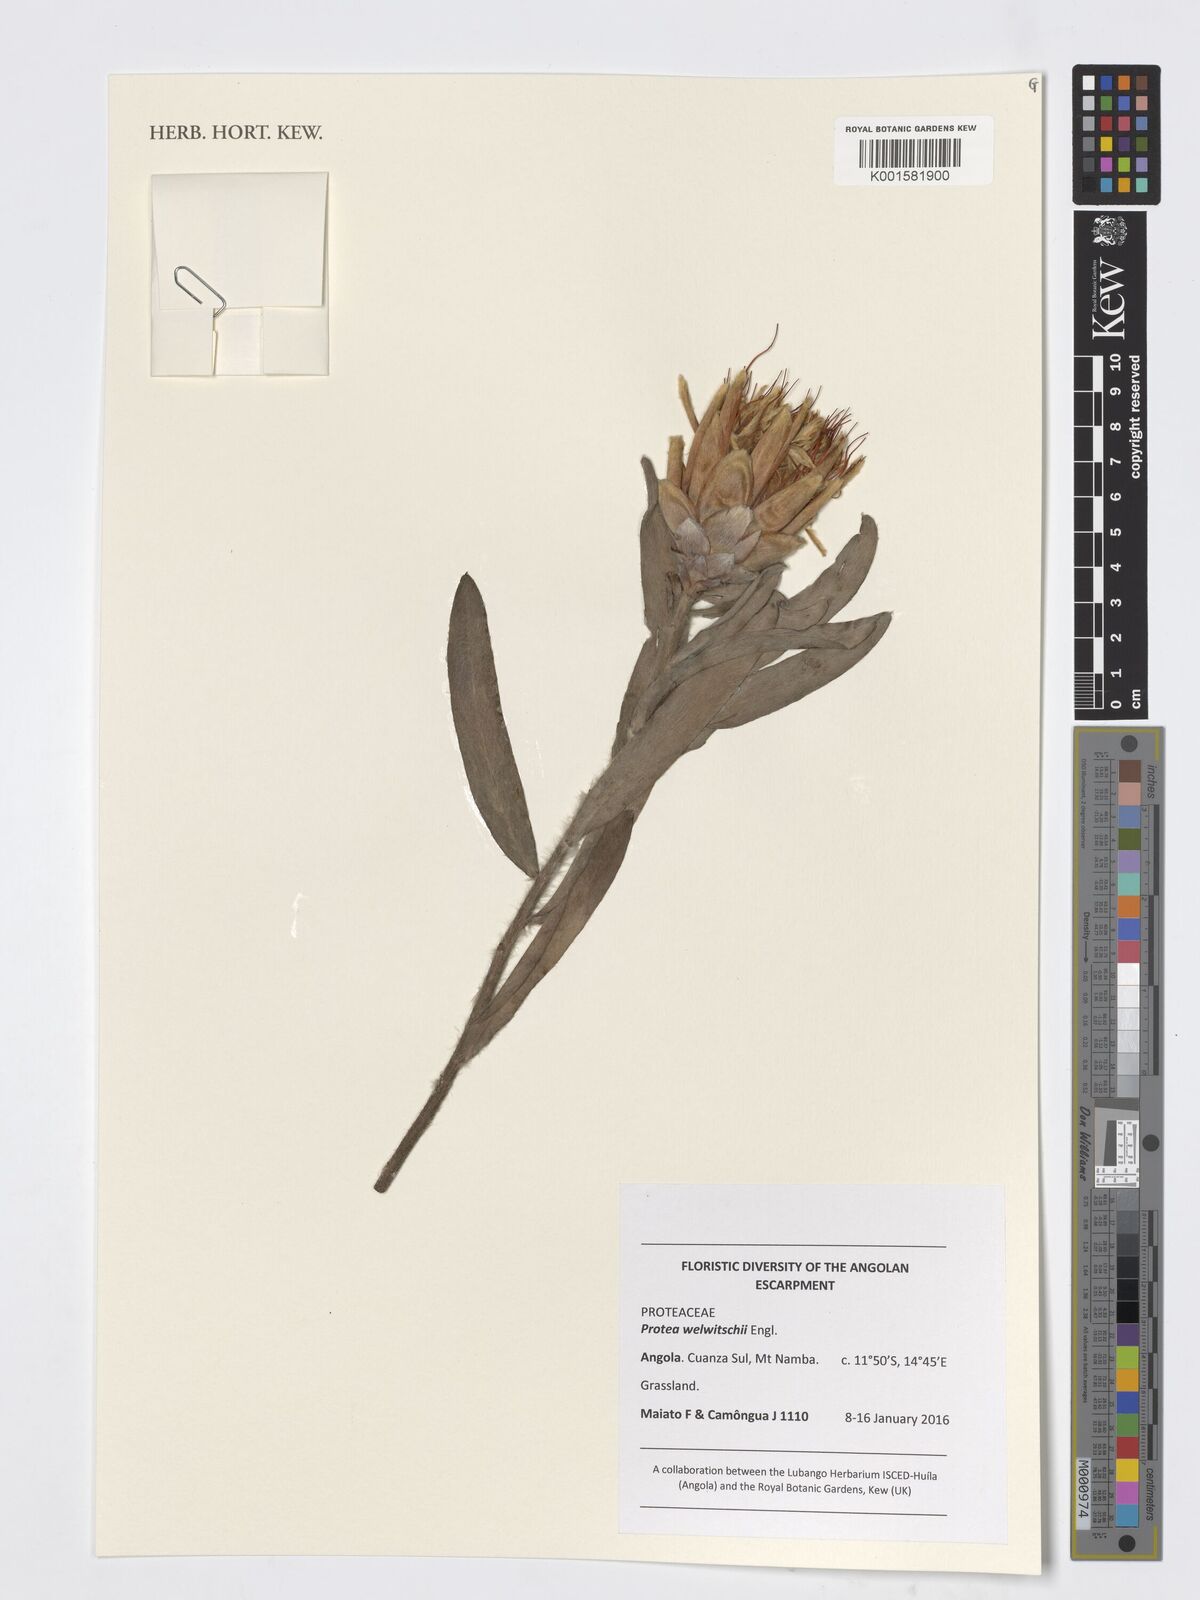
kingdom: Plantae
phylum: Tracheophyta
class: Magnoliopsida
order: Proteales
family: Proteaceae
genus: Protea
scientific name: Protea welwitschii
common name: Cluster-head protea
